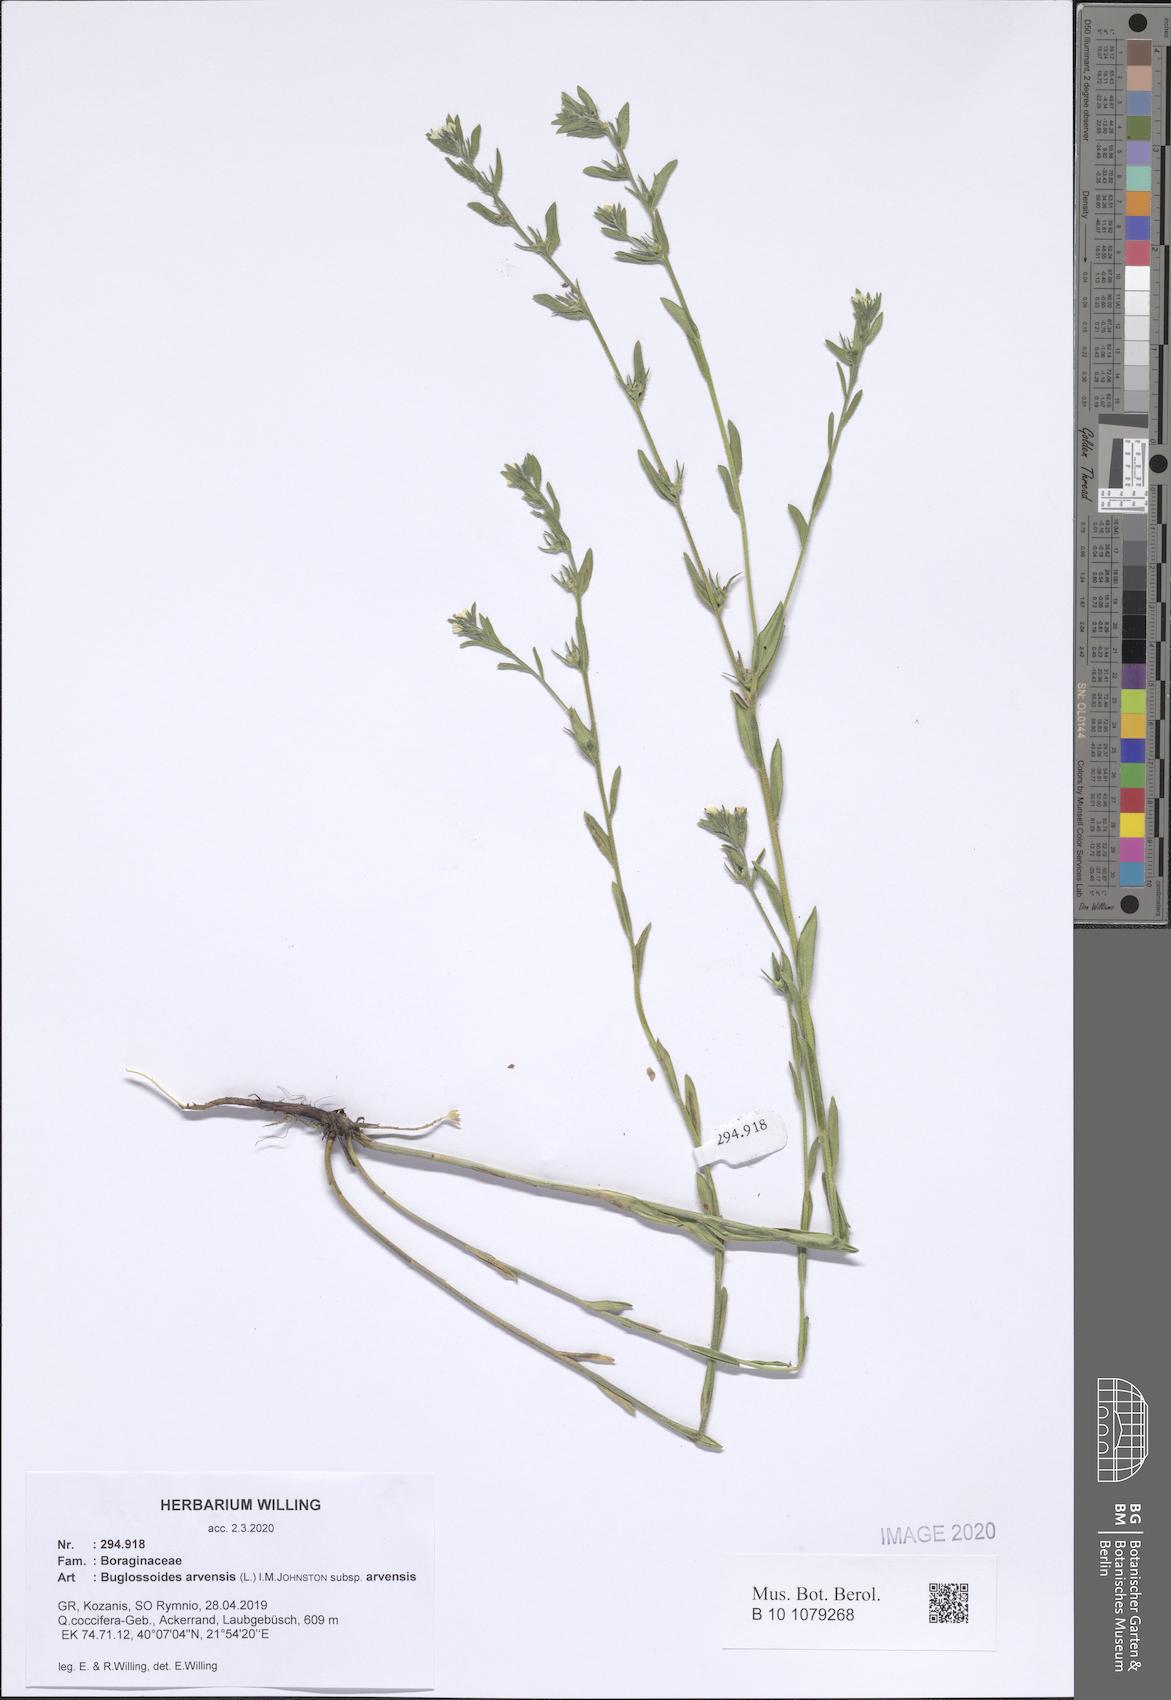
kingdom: Plantae
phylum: Tracheophyta
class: Magnoliopsida
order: Boraginales
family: Boraginaceae
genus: Buglossoides
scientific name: Buglossoides arvensis
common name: Corn gromwell
